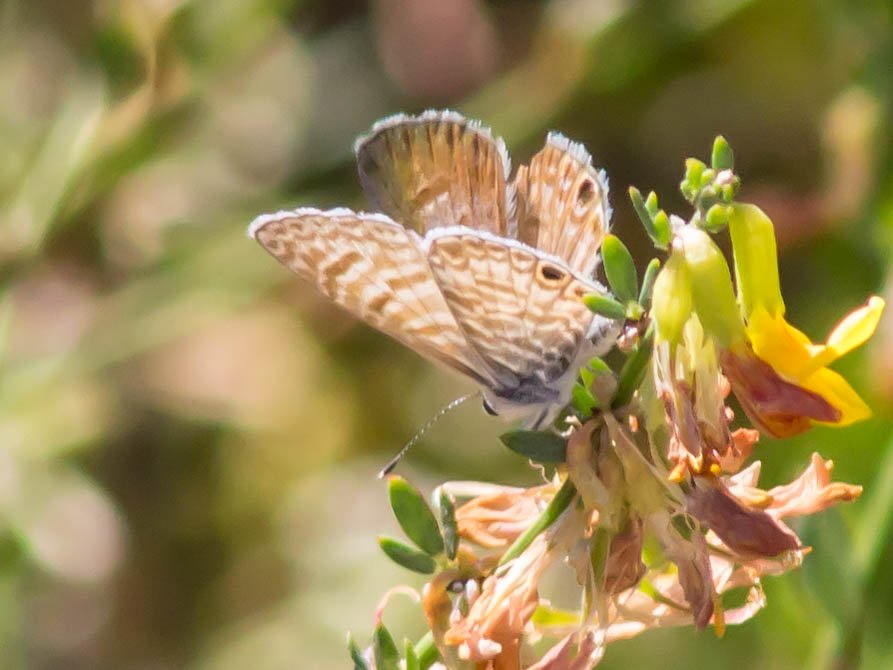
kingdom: Animalia
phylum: Arthropoda
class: Insecta
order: Lepidoptera
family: Lycaenidae
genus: Leptotes
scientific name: Leptotes marina
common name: Marine Blue
